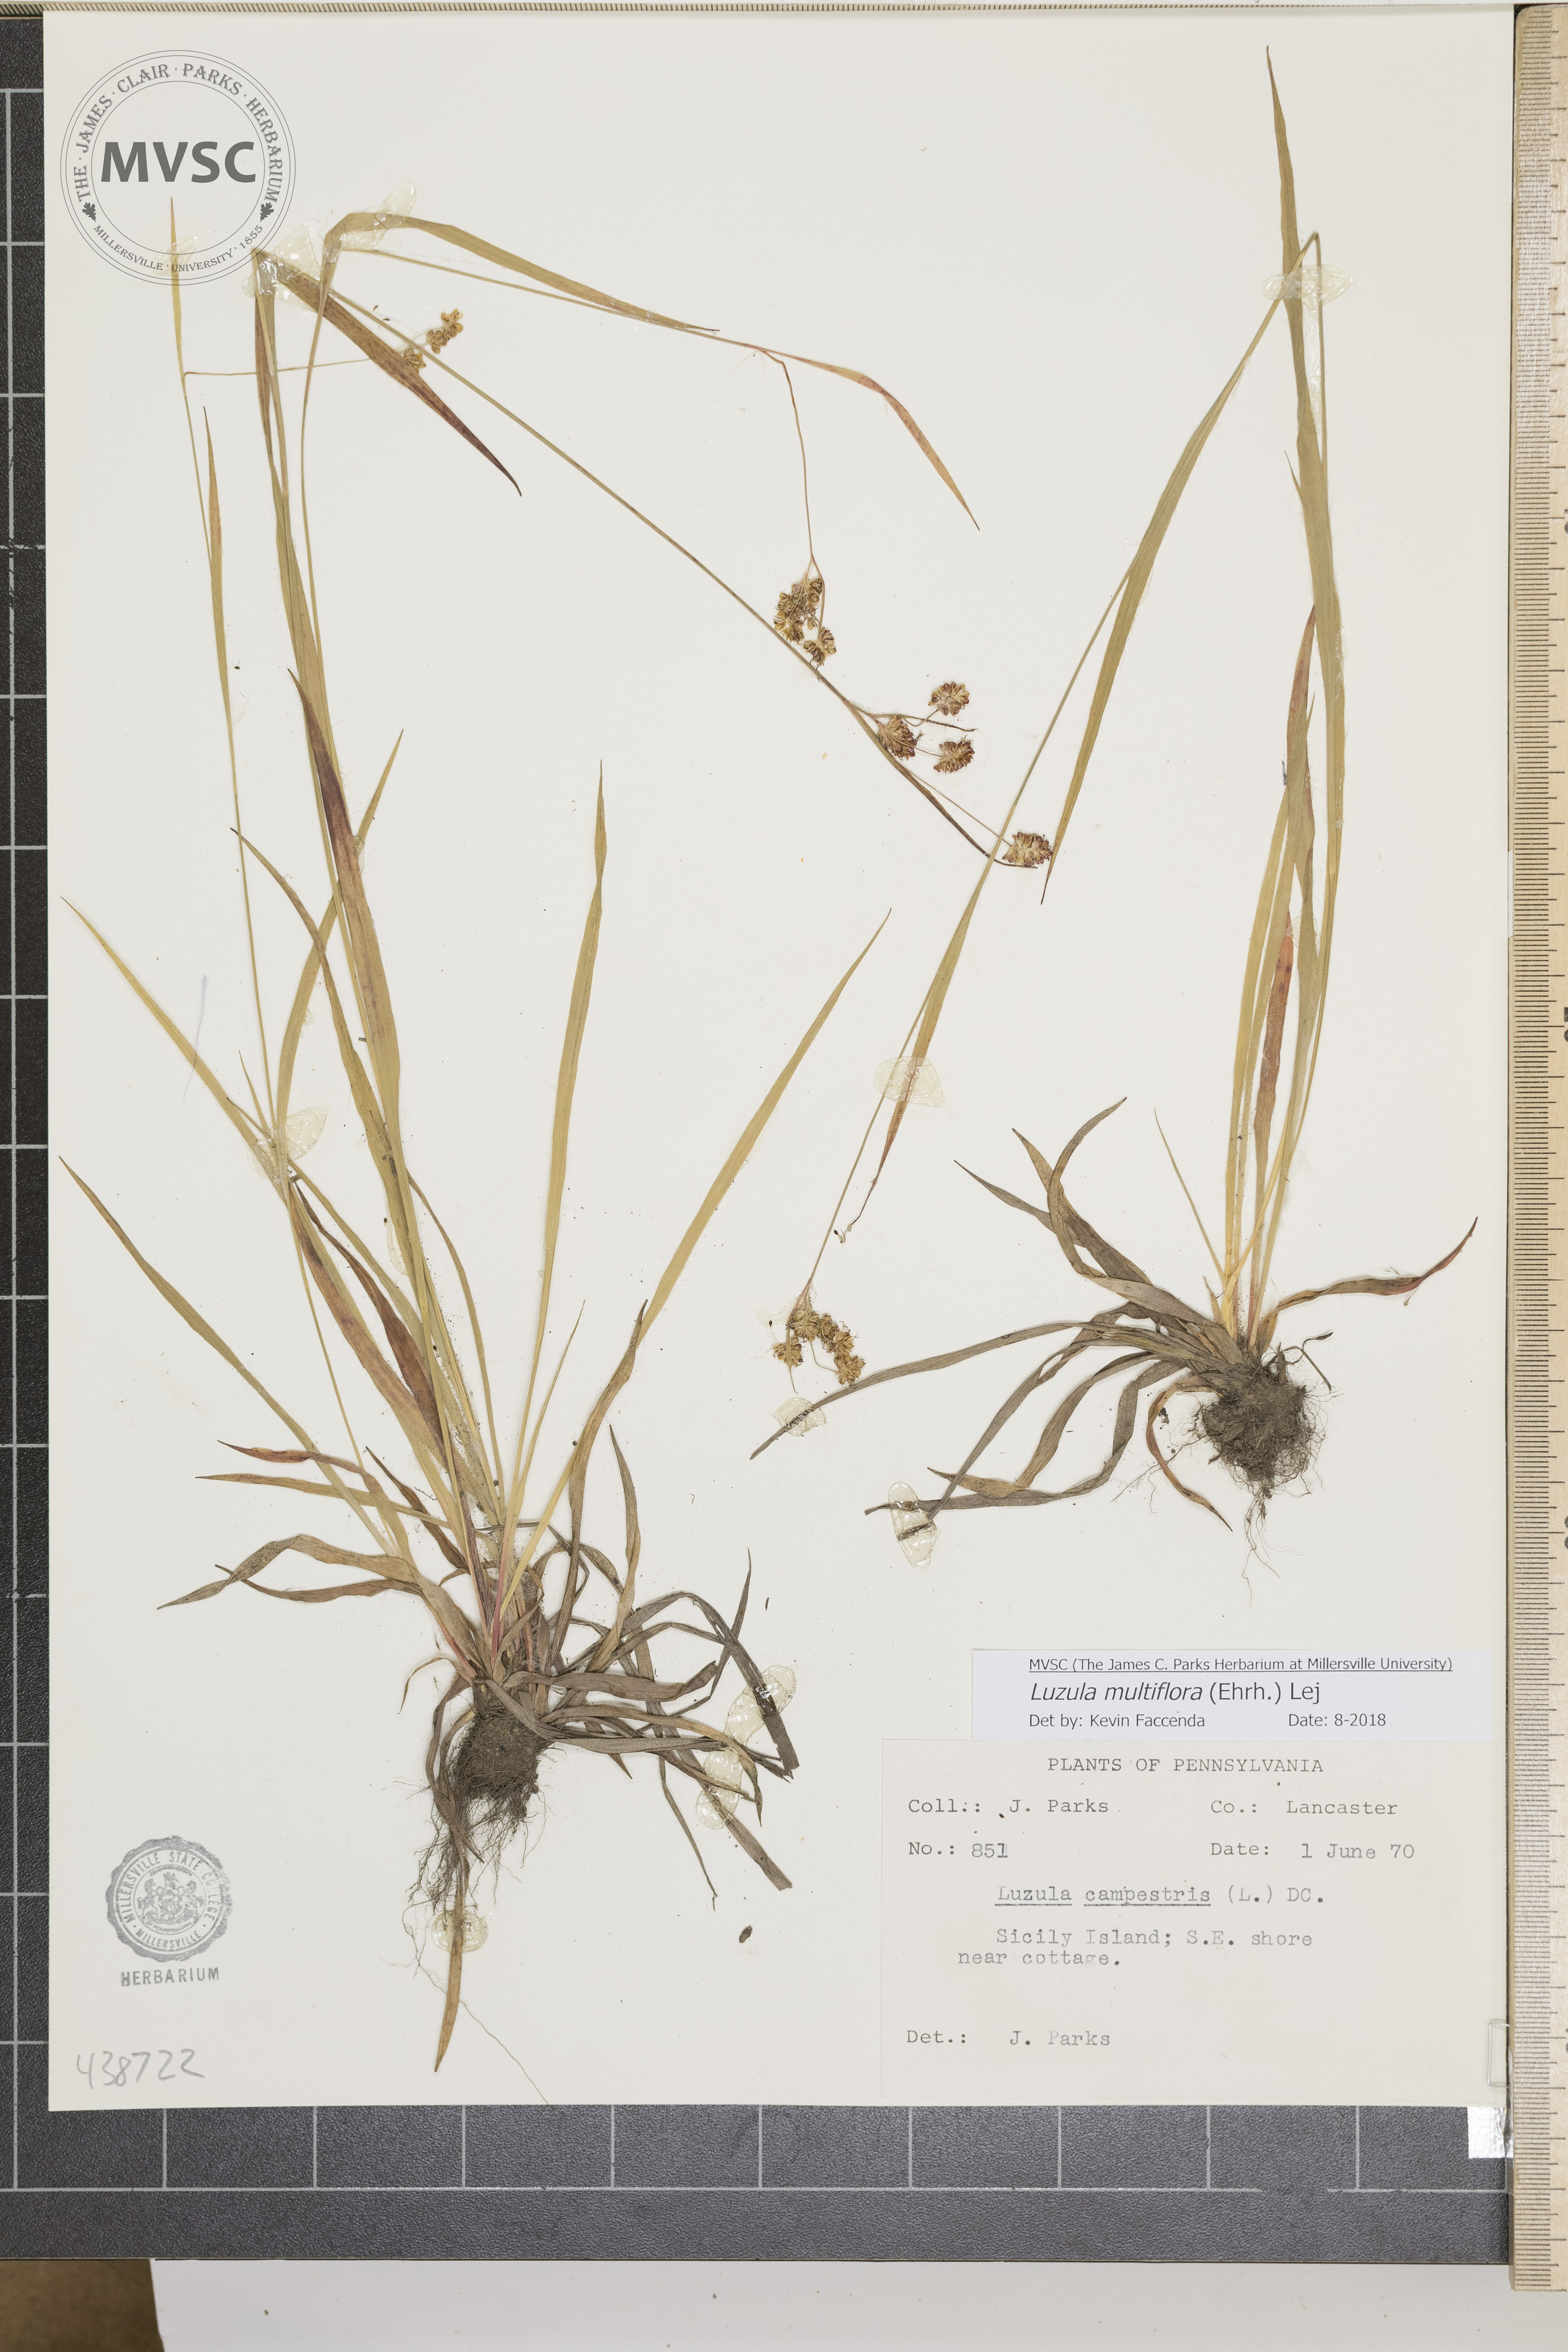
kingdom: Plantae
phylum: Tracheophyta
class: Liliopsida
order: Poales
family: Juncaceae
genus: Luzula
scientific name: Luzula multiflora
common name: Heath wood-rush
